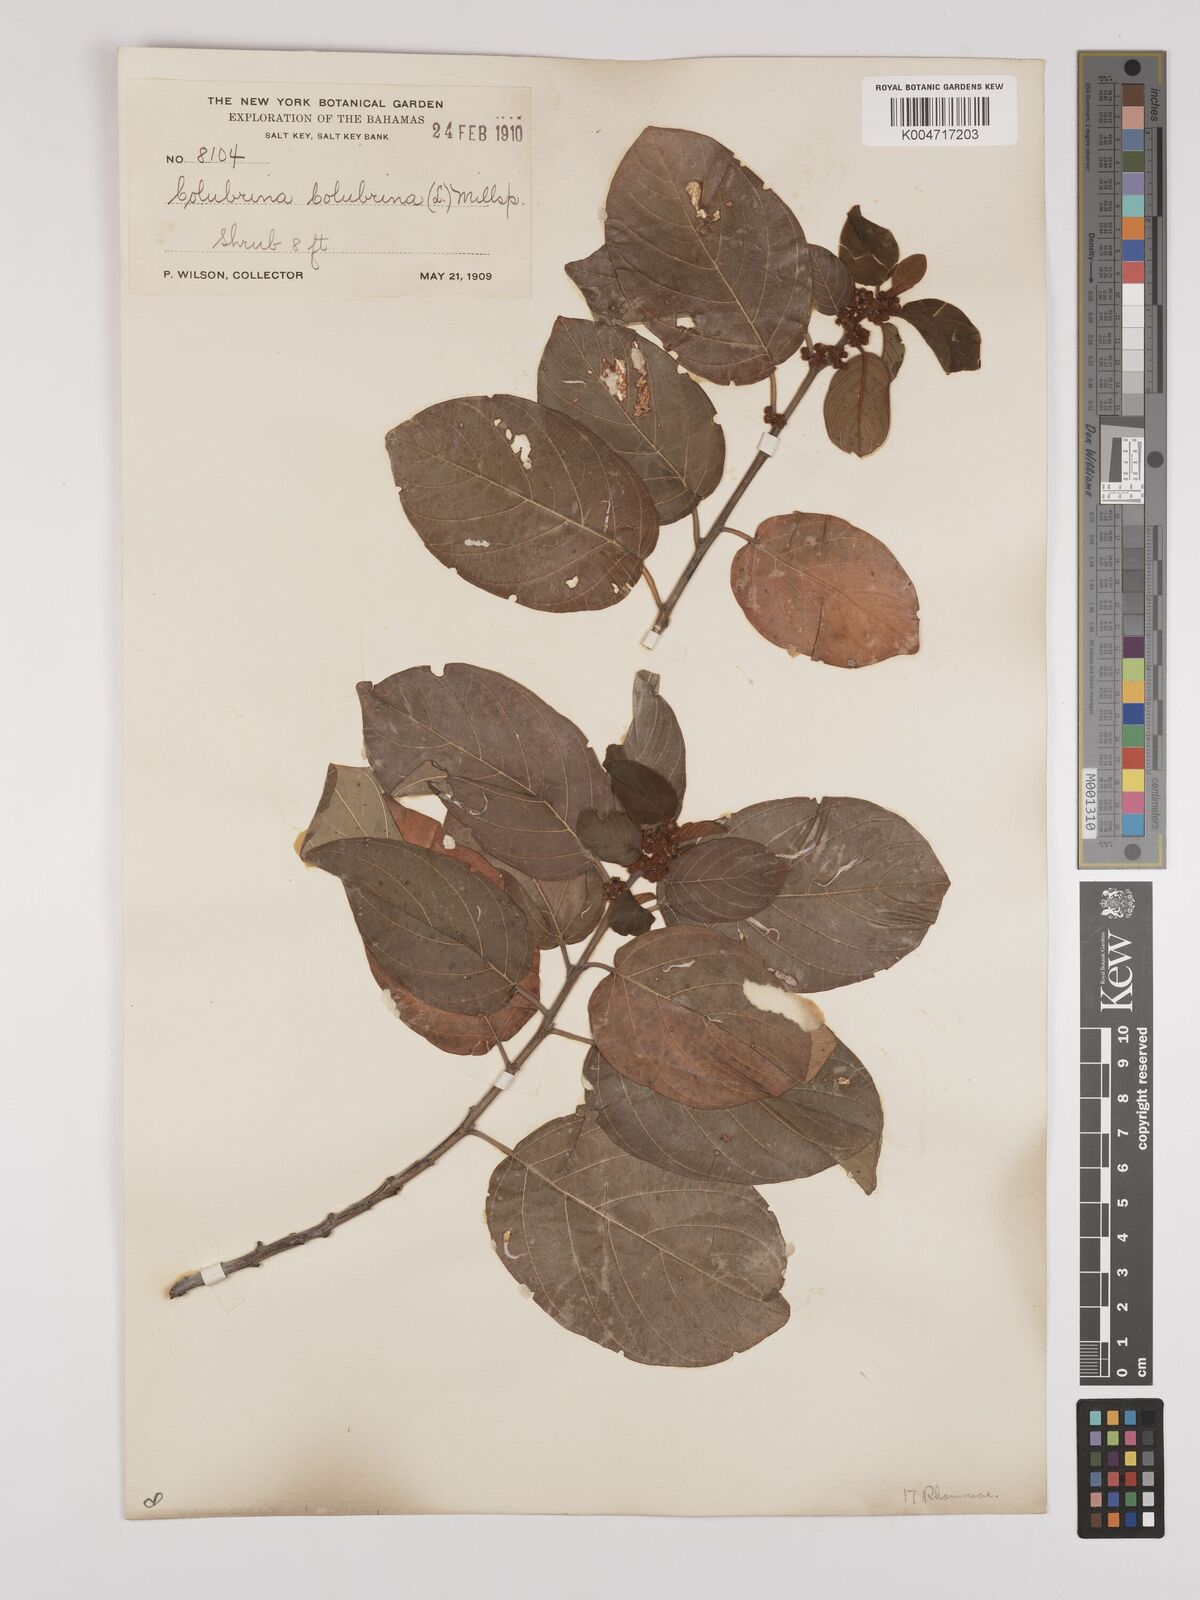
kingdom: Plantae
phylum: Tracheophyta
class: Magnoliopsida
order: Rosales
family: Rhamnaceae
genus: Colubrina
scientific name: Colubrina arborescens
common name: Wild coffee
